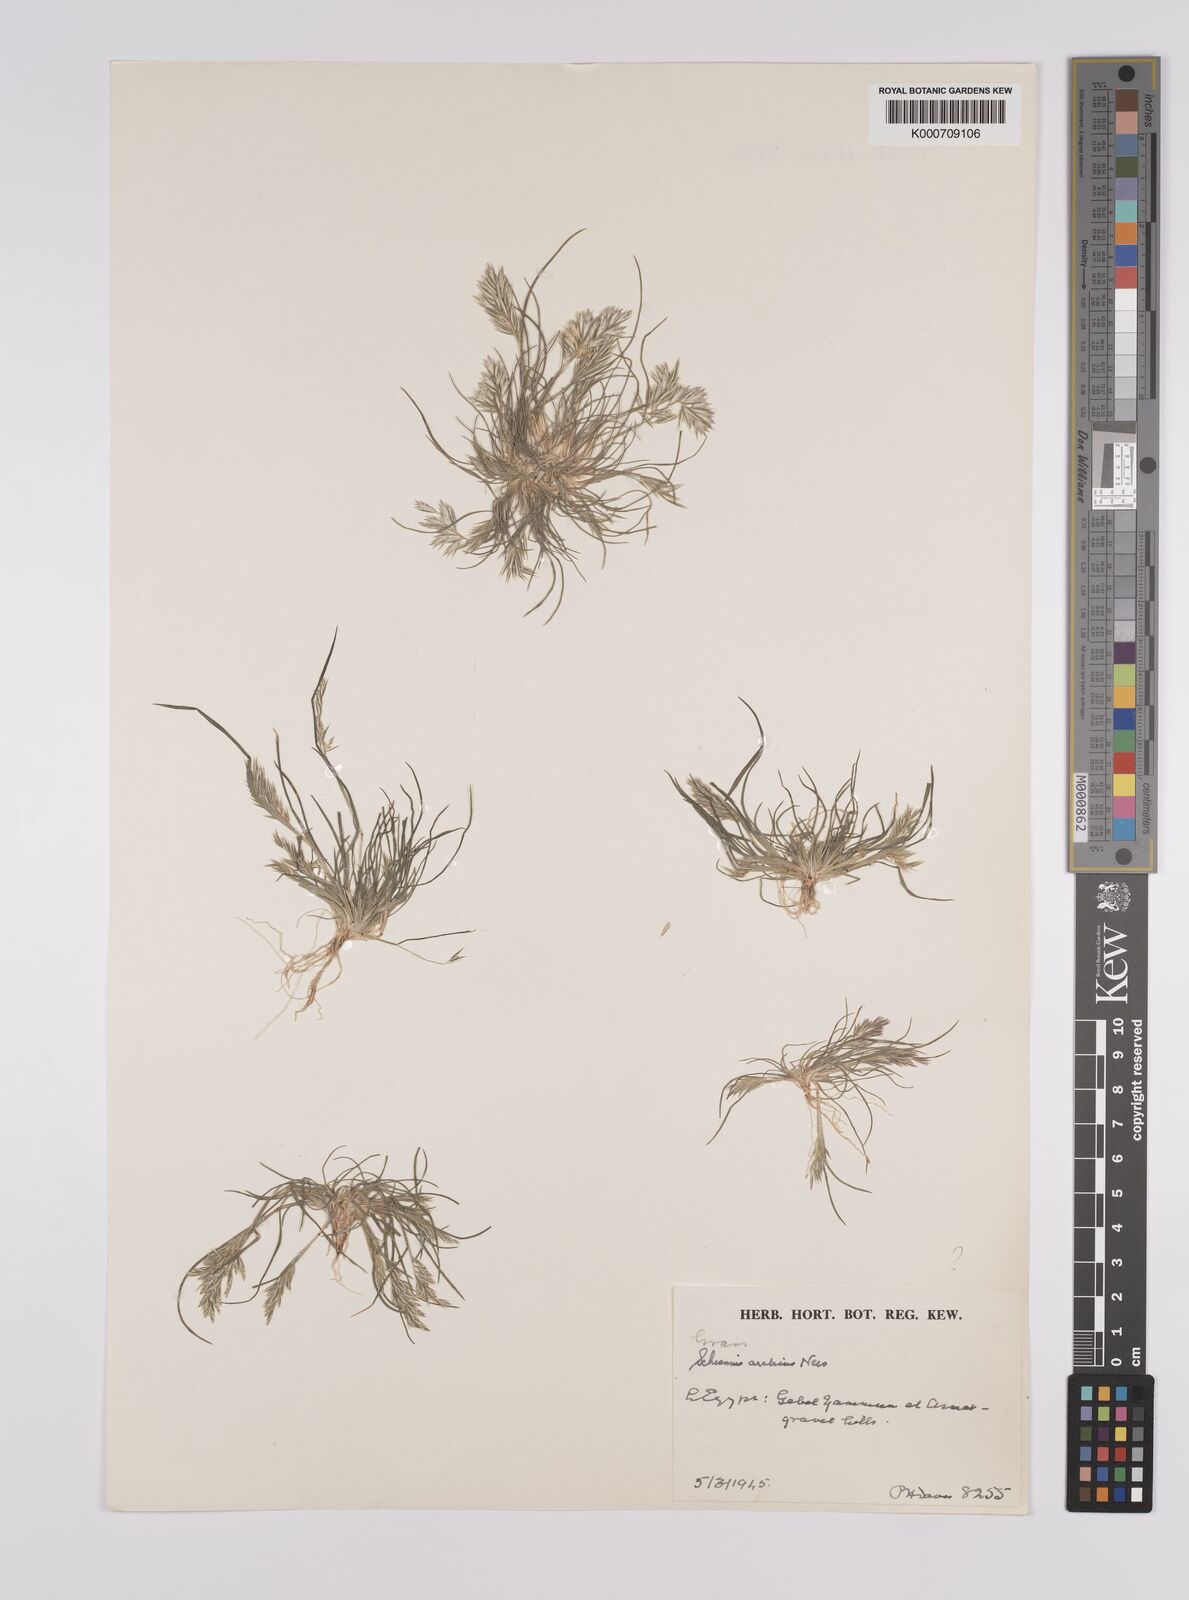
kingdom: Plantae
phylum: Tracheophyta
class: Liliopsida
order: Poales
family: Poaceae
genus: Schismus
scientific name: Schismus arabicus
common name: Arabian schismus
